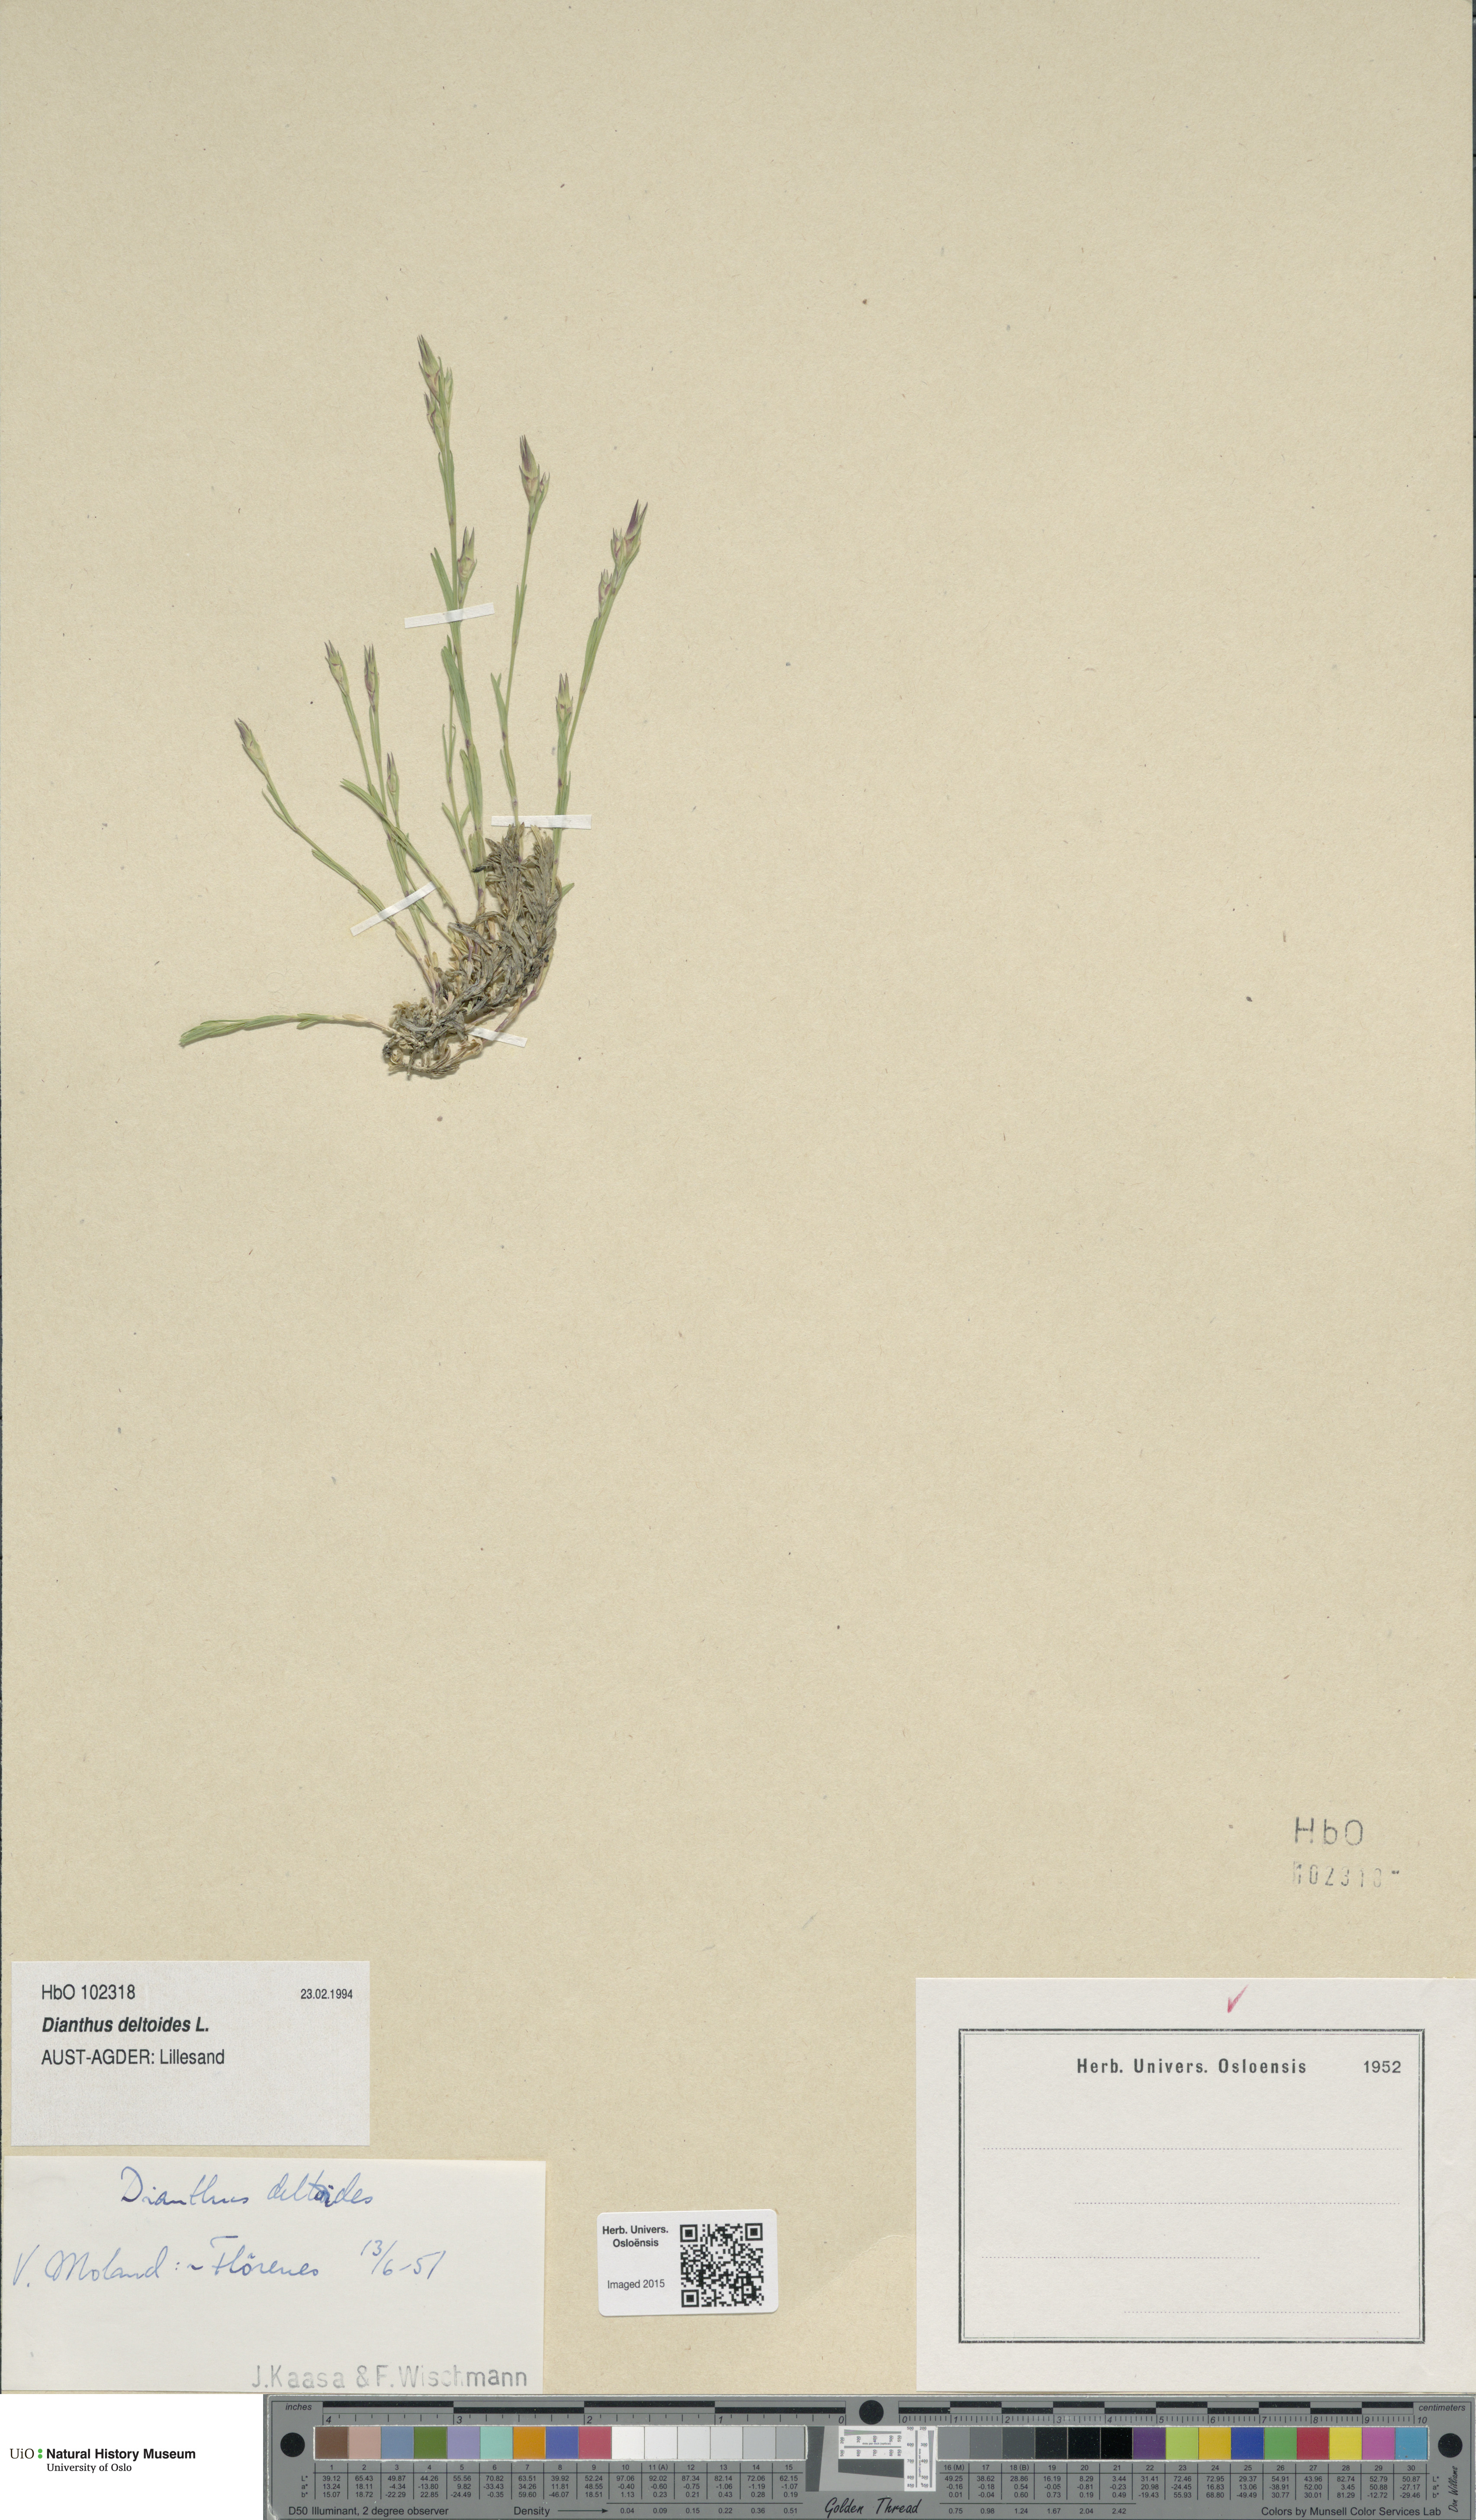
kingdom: Plantae
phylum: Tracheophyta
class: Magnoliopsida
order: Caryophyllales
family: Caryophyllaceae
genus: Dianthus
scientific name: Dianthus deltoides
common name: Maiden pink
